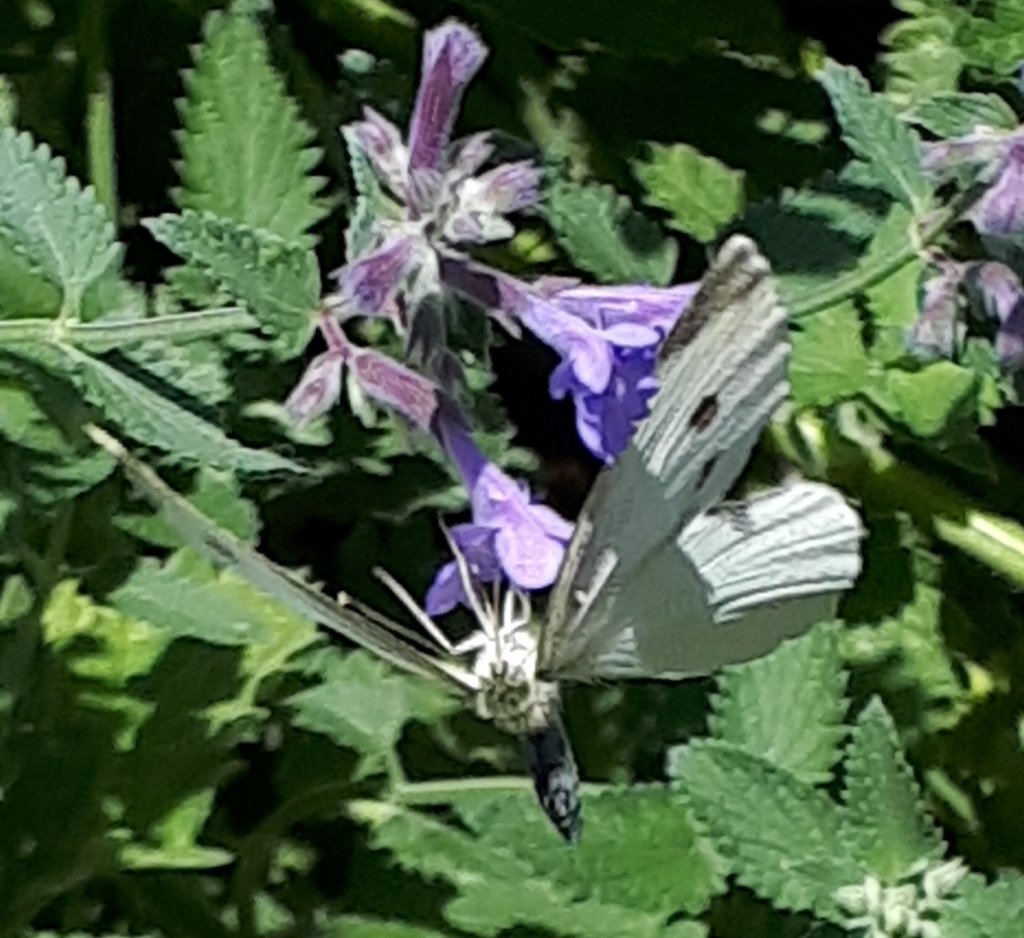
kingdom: Animalia
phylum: Arthropoda
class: Insecta
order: Lepidoptera
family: Pieridae
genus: Pieris
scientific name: Pieris rapae
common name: Cabbage White
